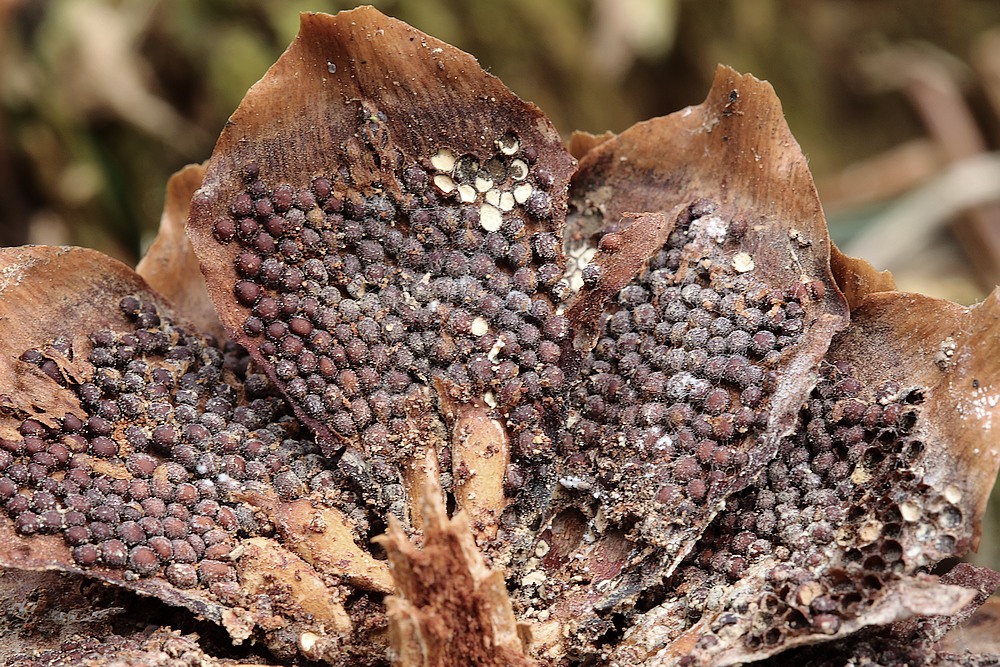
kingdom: Fungi
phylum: Basidiomycota
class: Pucciniomycetes
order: Pucciniales
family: Pucciniastraceae
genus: Thekopsora
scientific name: Thekopsora areolata
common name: grankogle-nålerust
